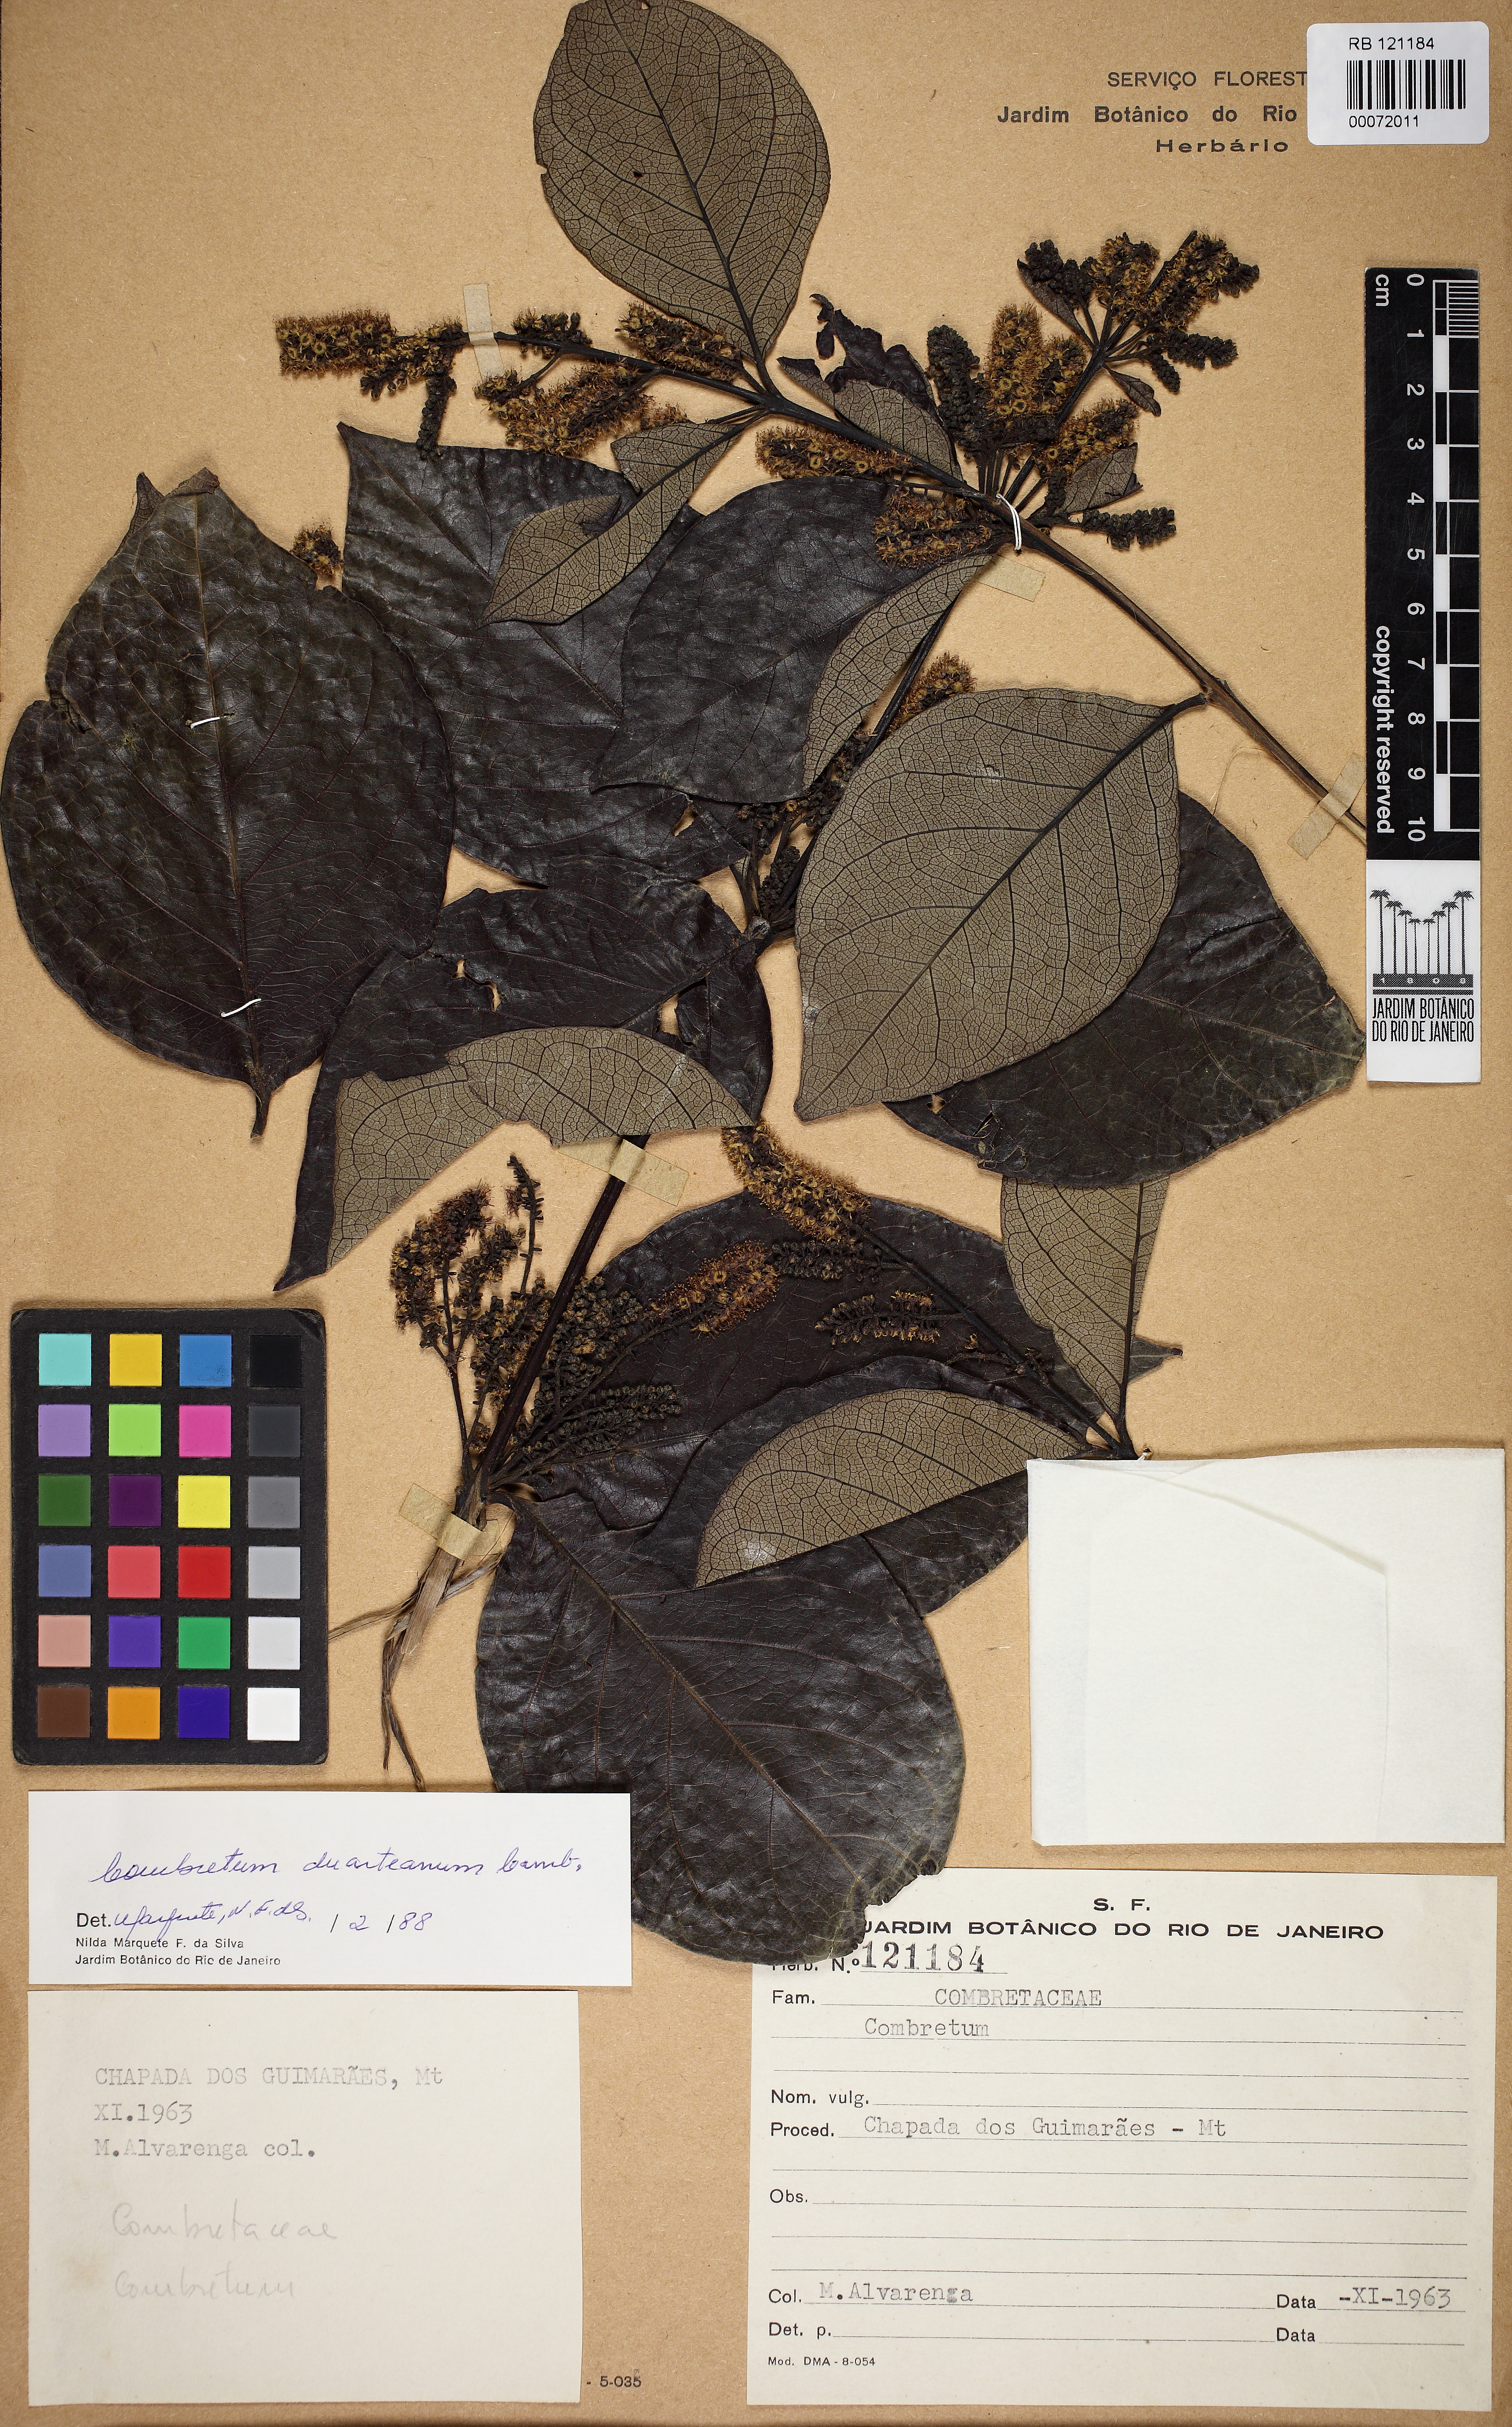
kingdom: Plantae
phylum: Tracheophyta
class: Magnoliopsida
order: Myrtales
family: Combretaceae
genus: Combretum
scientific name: Combretum duarteanum
